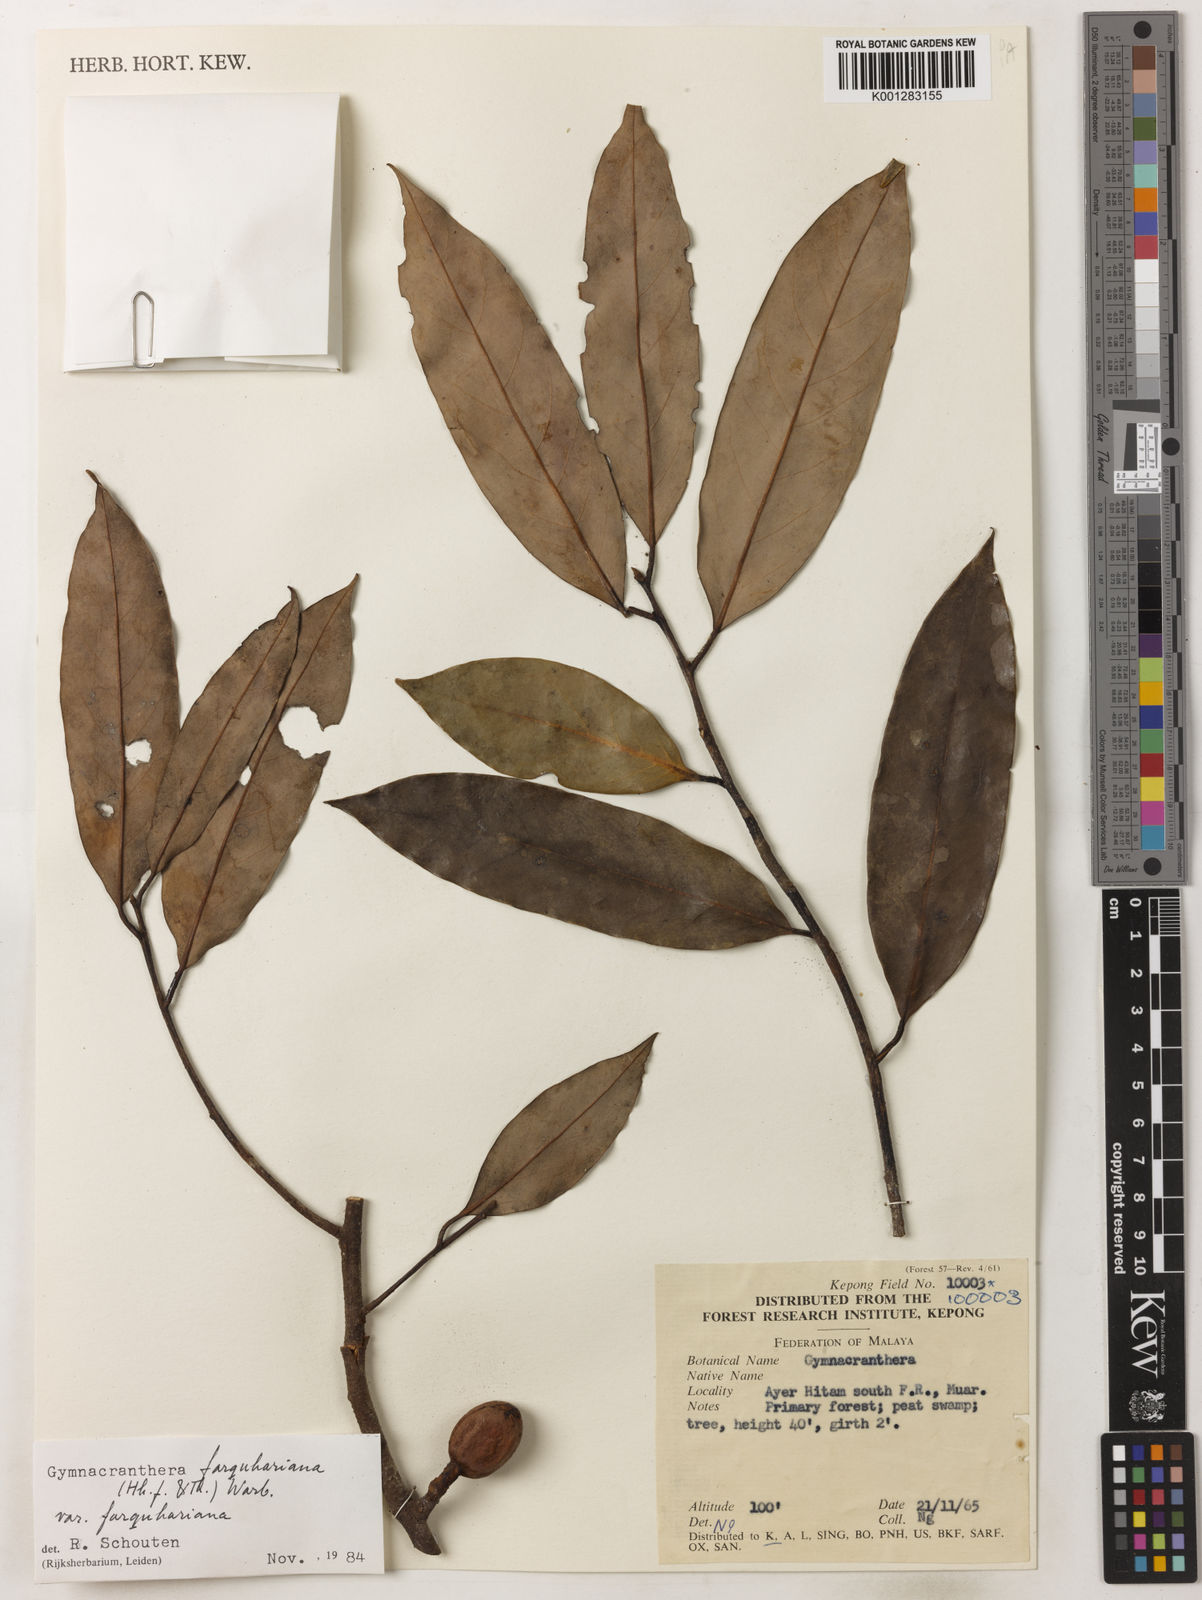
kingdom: Plantae
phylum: Tracheophyta
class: Magnoliopsida
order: Magnoliales
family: Myristicaceae
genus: Gymnacranthera
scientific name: Gymnacranthera farquhariana
